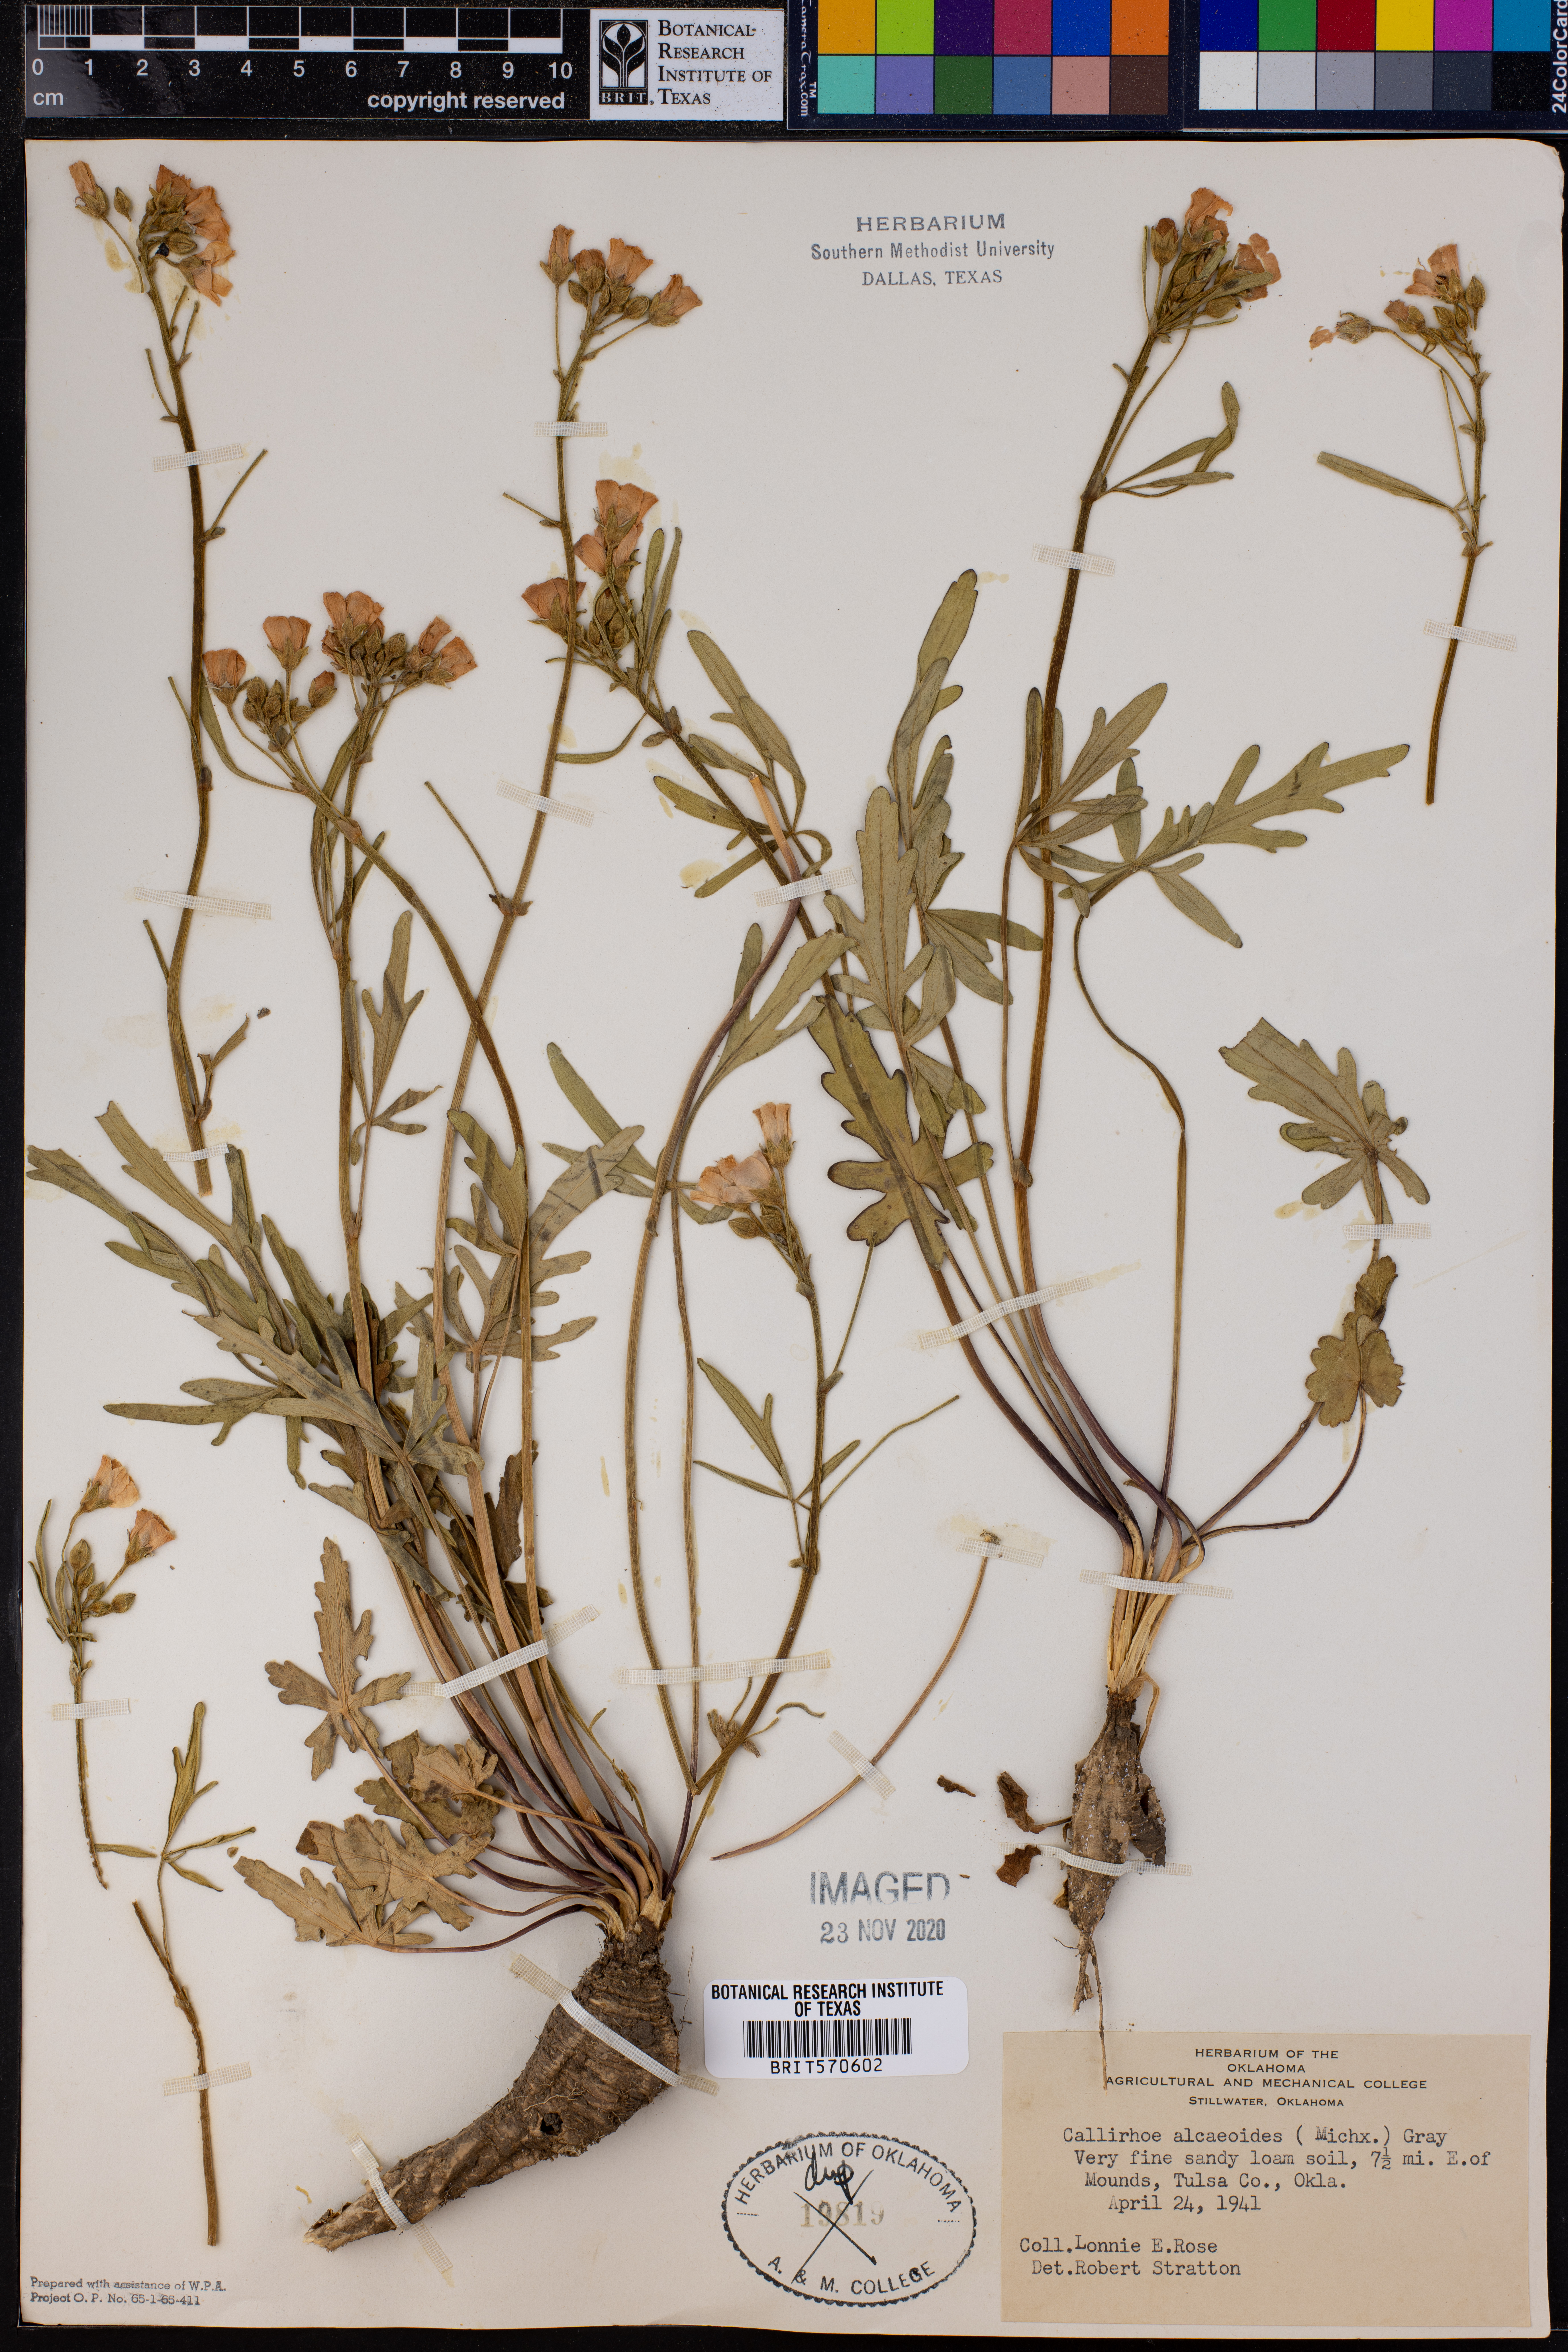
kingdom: Plantae
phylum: Tracheophyta
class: Magnoliopsida
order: Malvales
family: Malvaceae
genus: Callirhoe
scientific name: Callirhoe alcaeoides
